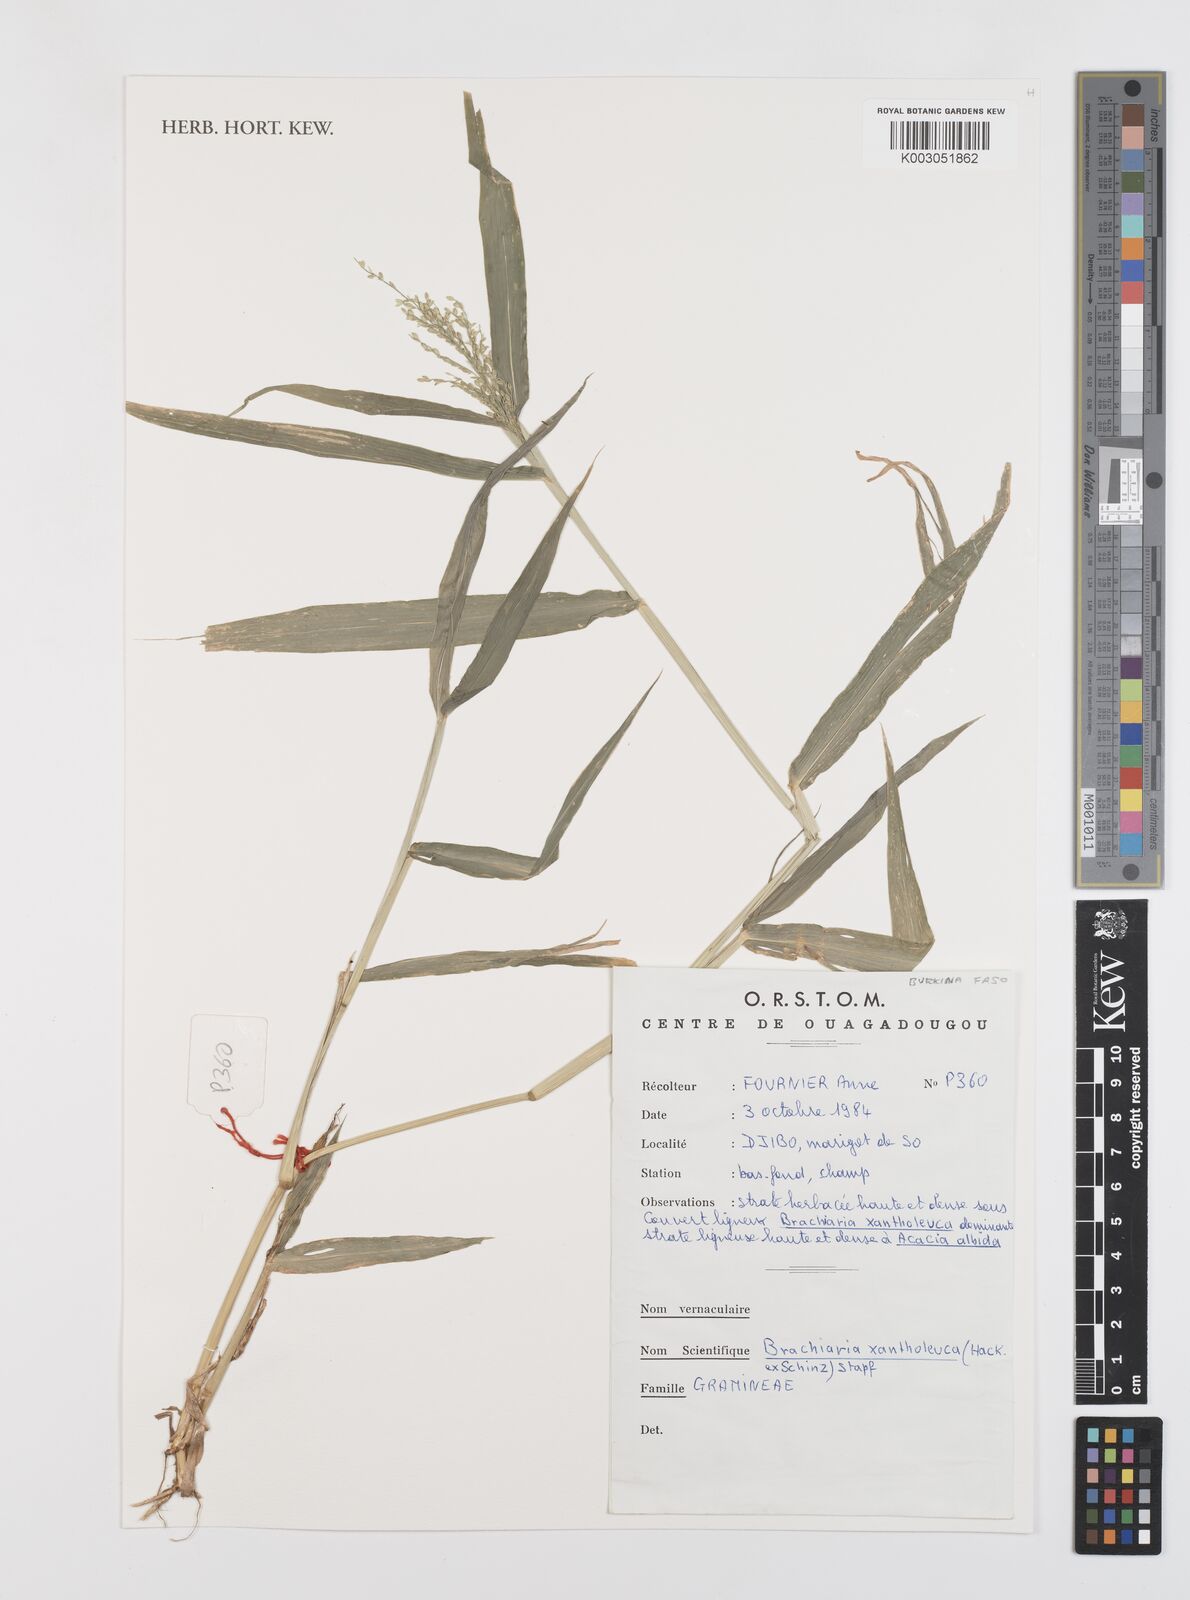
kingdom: Plantae
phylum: Tracheophyta
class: Liliopsida
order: Poales
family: Poaceae
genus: Urochloa
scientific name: Urochloa xantholeuca
